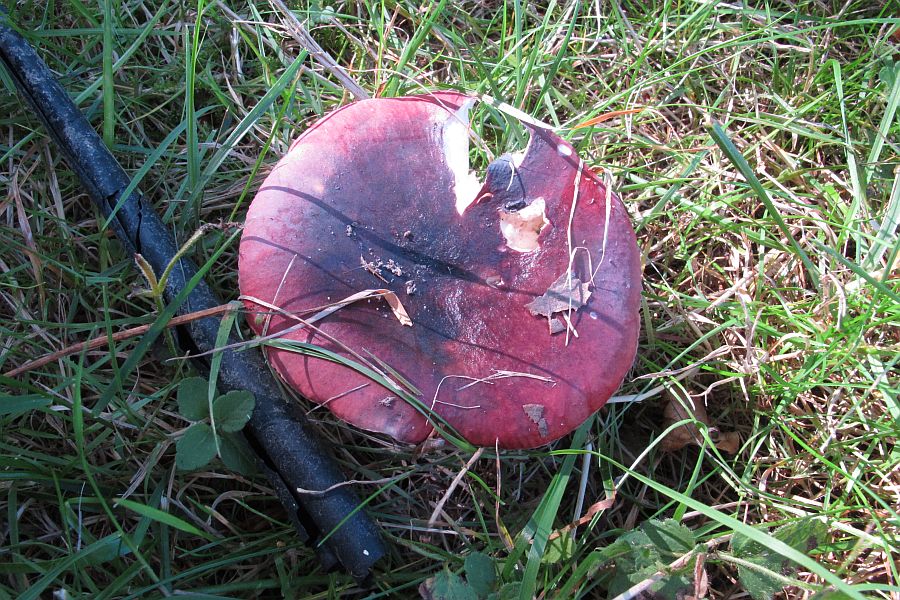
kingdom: Fungi
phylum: Basidiomycota
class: Agaricomycetes
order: Russulales
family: Russulaceae
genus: Russula
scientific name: Russula
